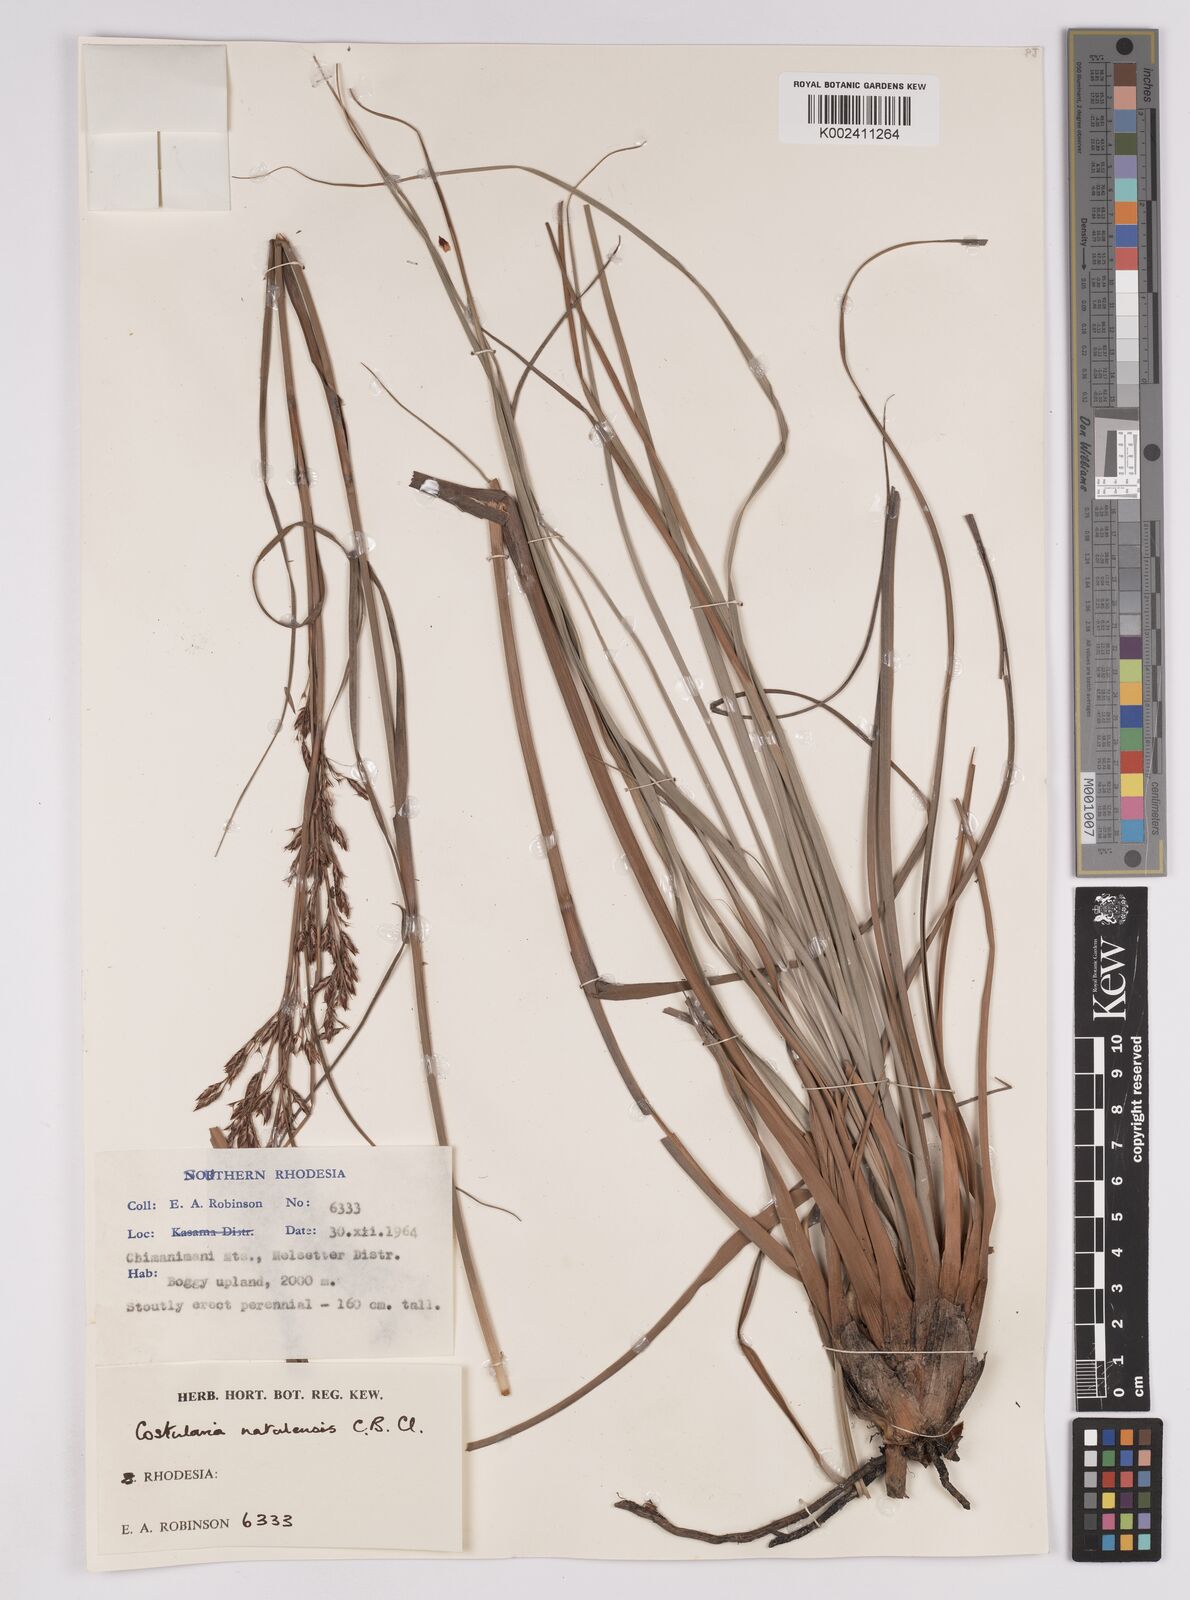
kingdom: Plantae
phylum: Tracheophyta
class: Liliopsida
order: Poales
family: Cyperaceae
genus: Costularia
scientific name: Costularia natalensis
